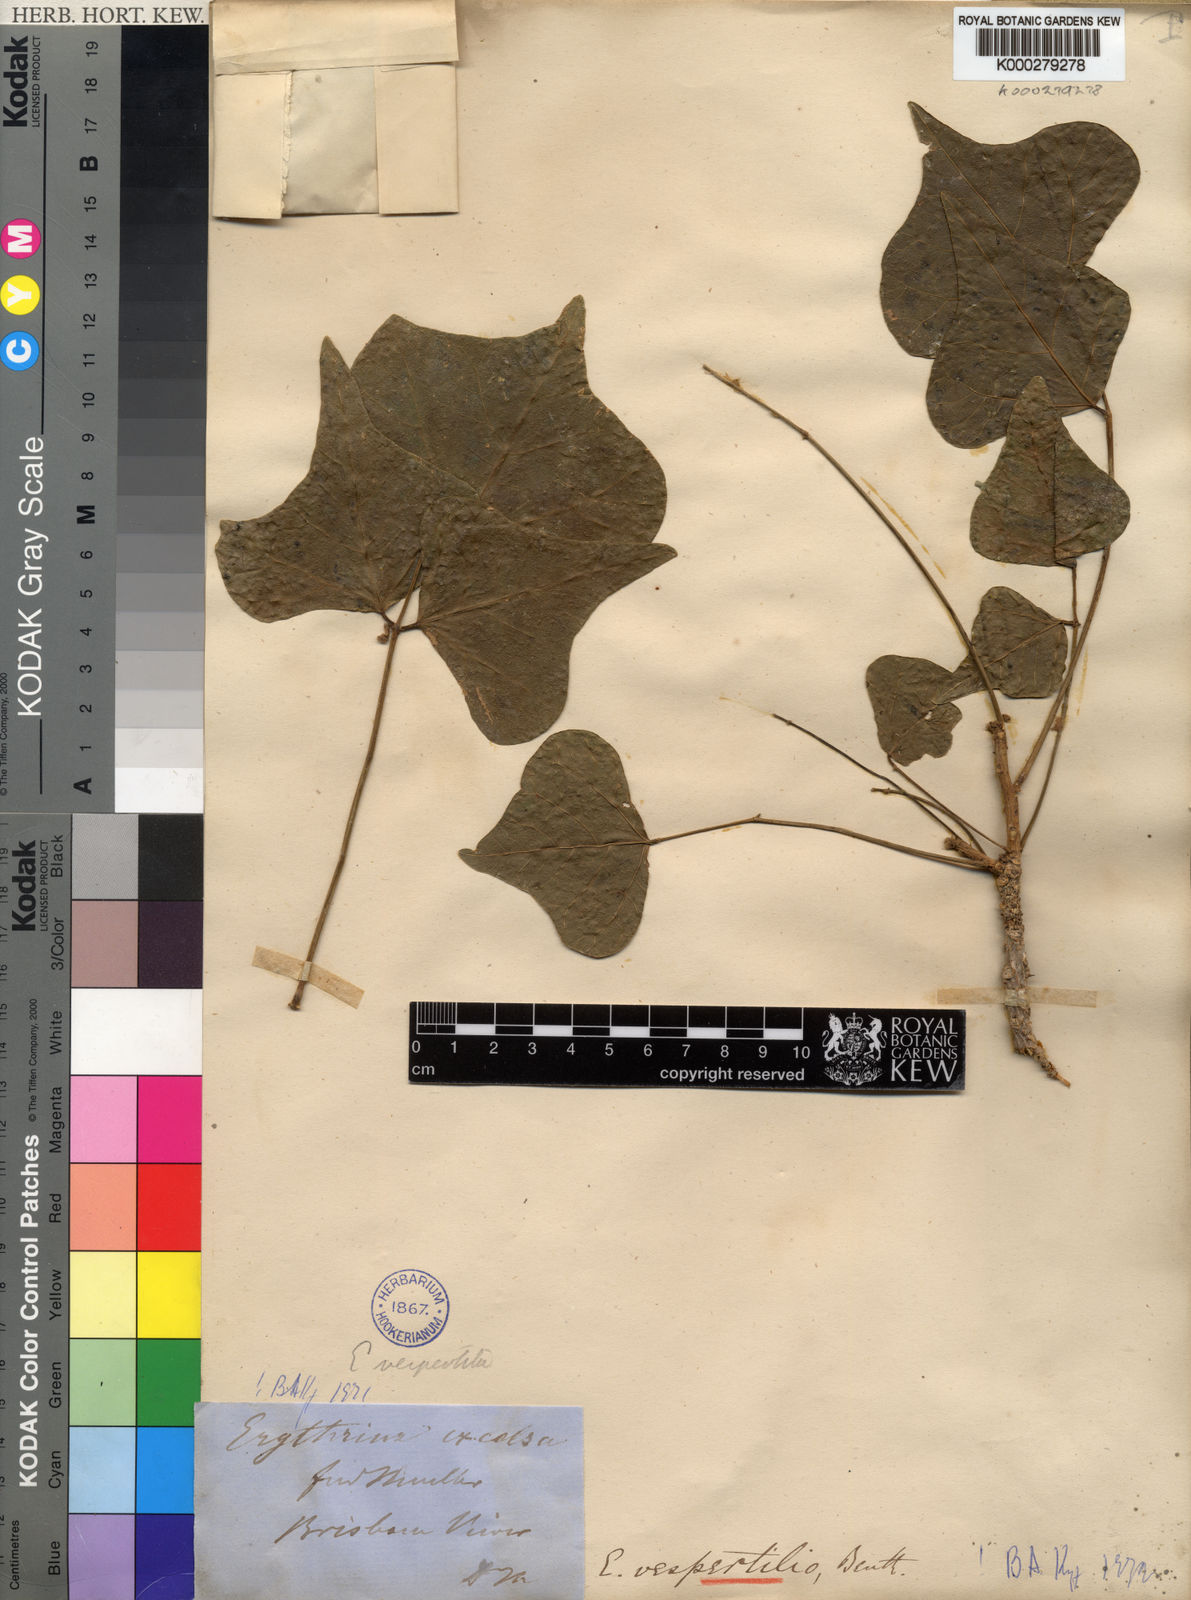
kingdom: Plantae
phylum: Tracheophyta
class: Magnoliopsida
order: Fabales
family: Fabaceae
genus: Erythrina
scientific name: Erythrina vespertilio
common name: Bat-wing coral tree
